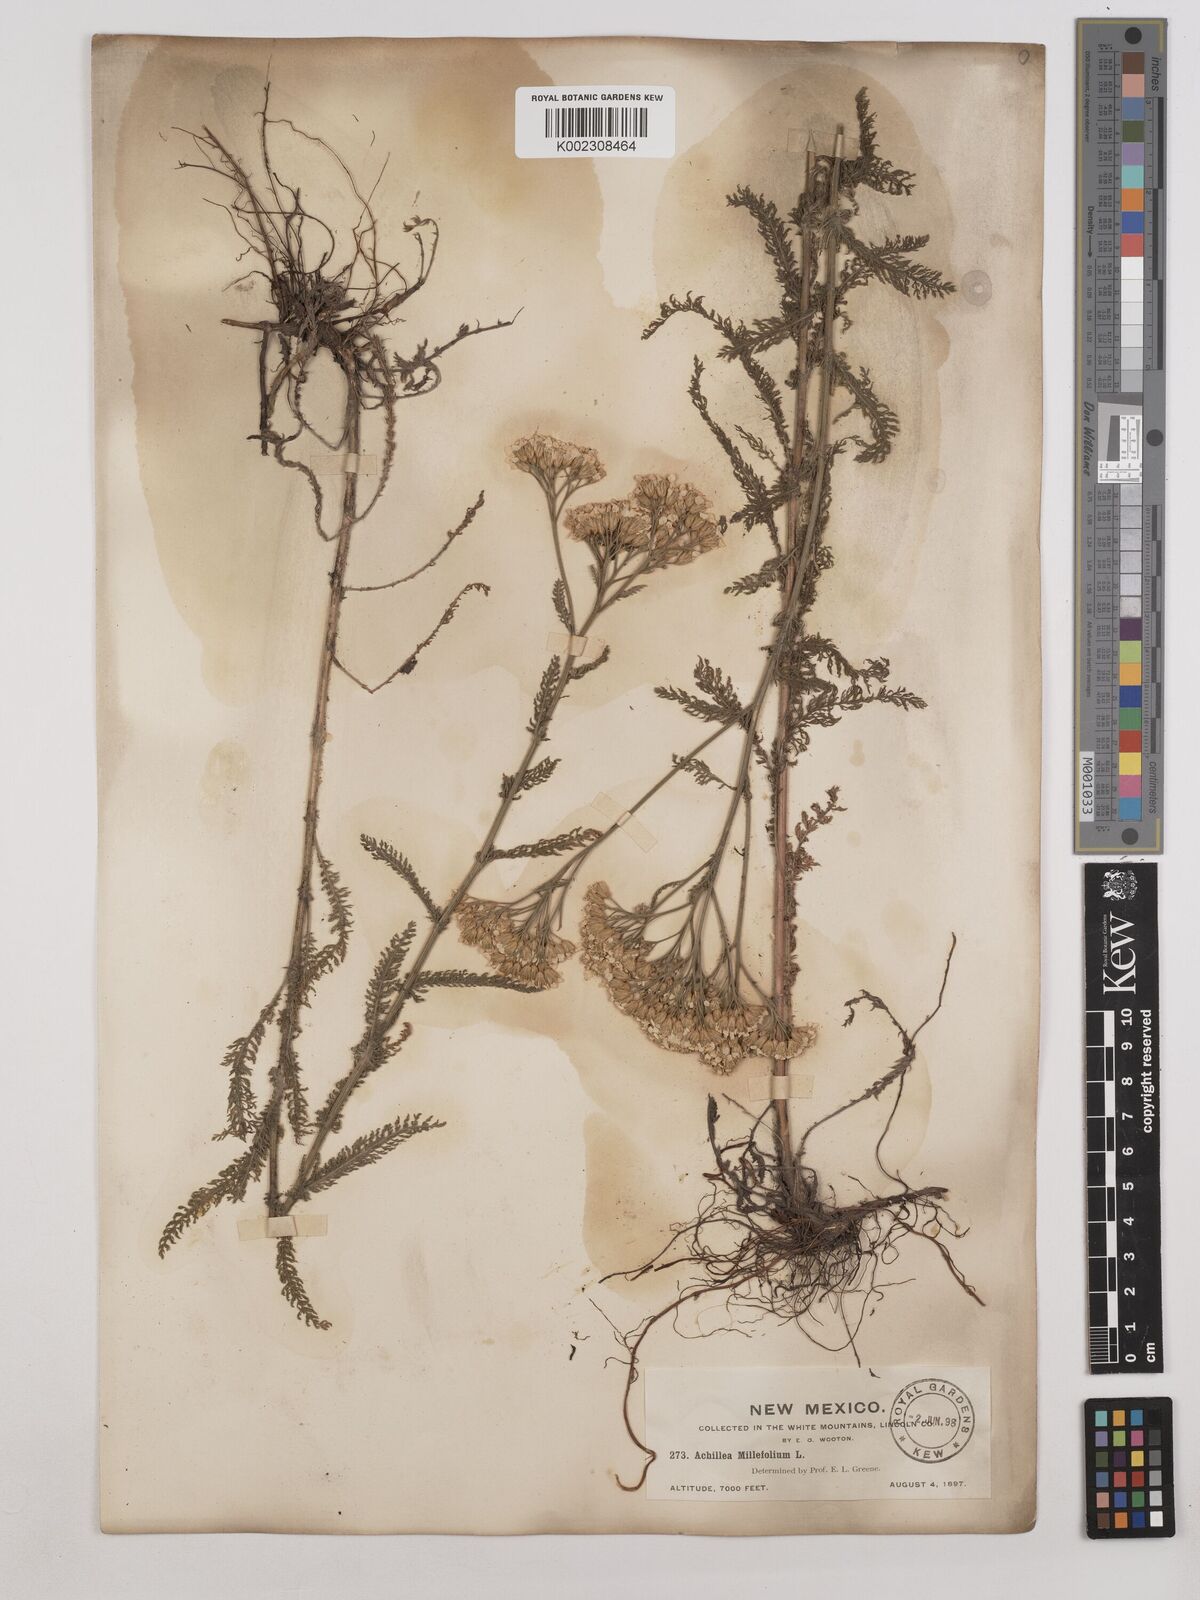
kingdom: Plantae
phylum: Tracheophyta
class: Magnoliopsida
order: Asterales
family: Asteraceae
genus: Achillea
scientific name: Achillea millefolium
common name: Yarrow
